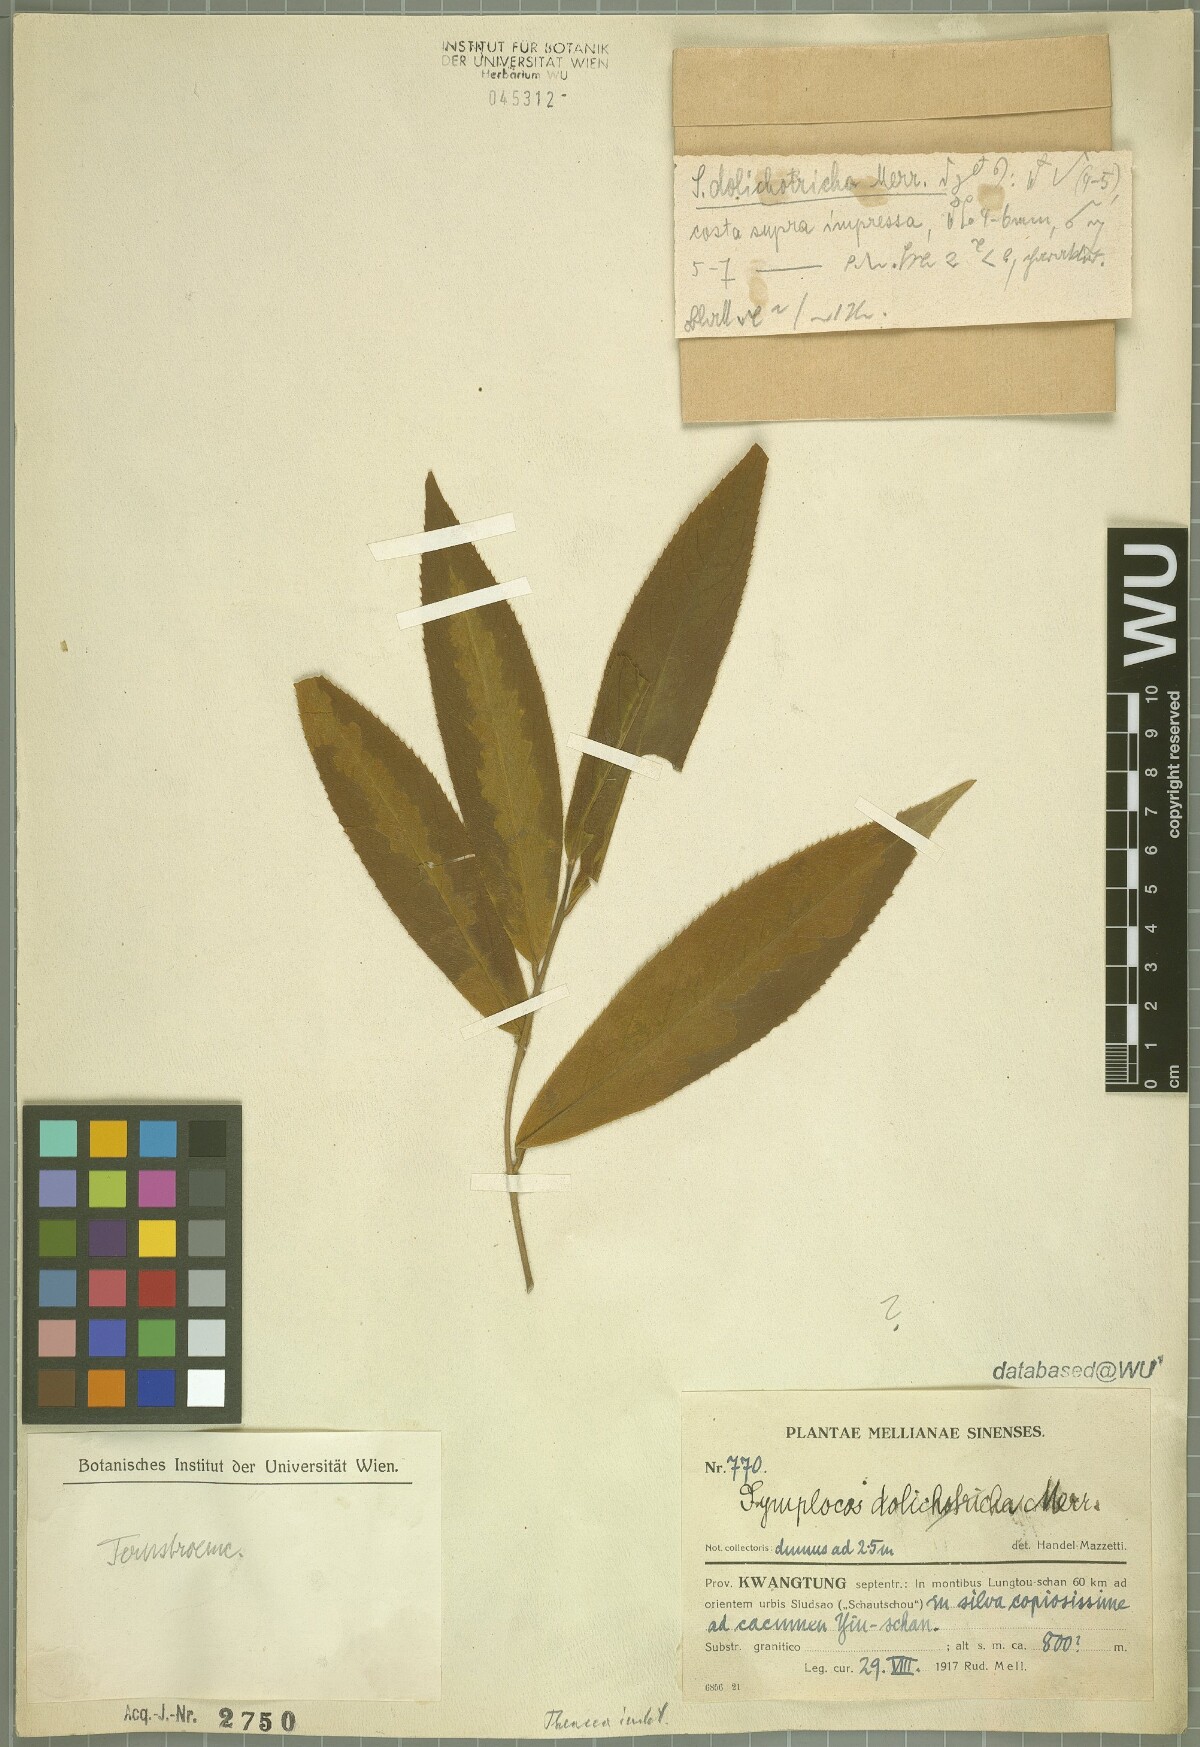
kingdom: Plantae
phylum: Tracheophyta
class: Magnoliopsida
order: Ericales
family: Theaceae
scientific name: Theaceae
